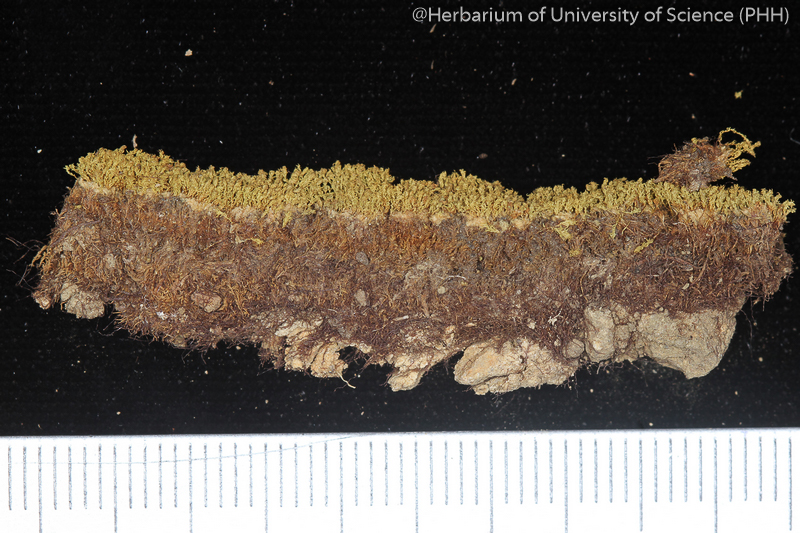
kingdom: Plantae
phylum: Bryophyta
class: Bryopsida
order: Pottiales
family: Pottiaceae
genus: Anoectangium
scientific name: Anoectangium
